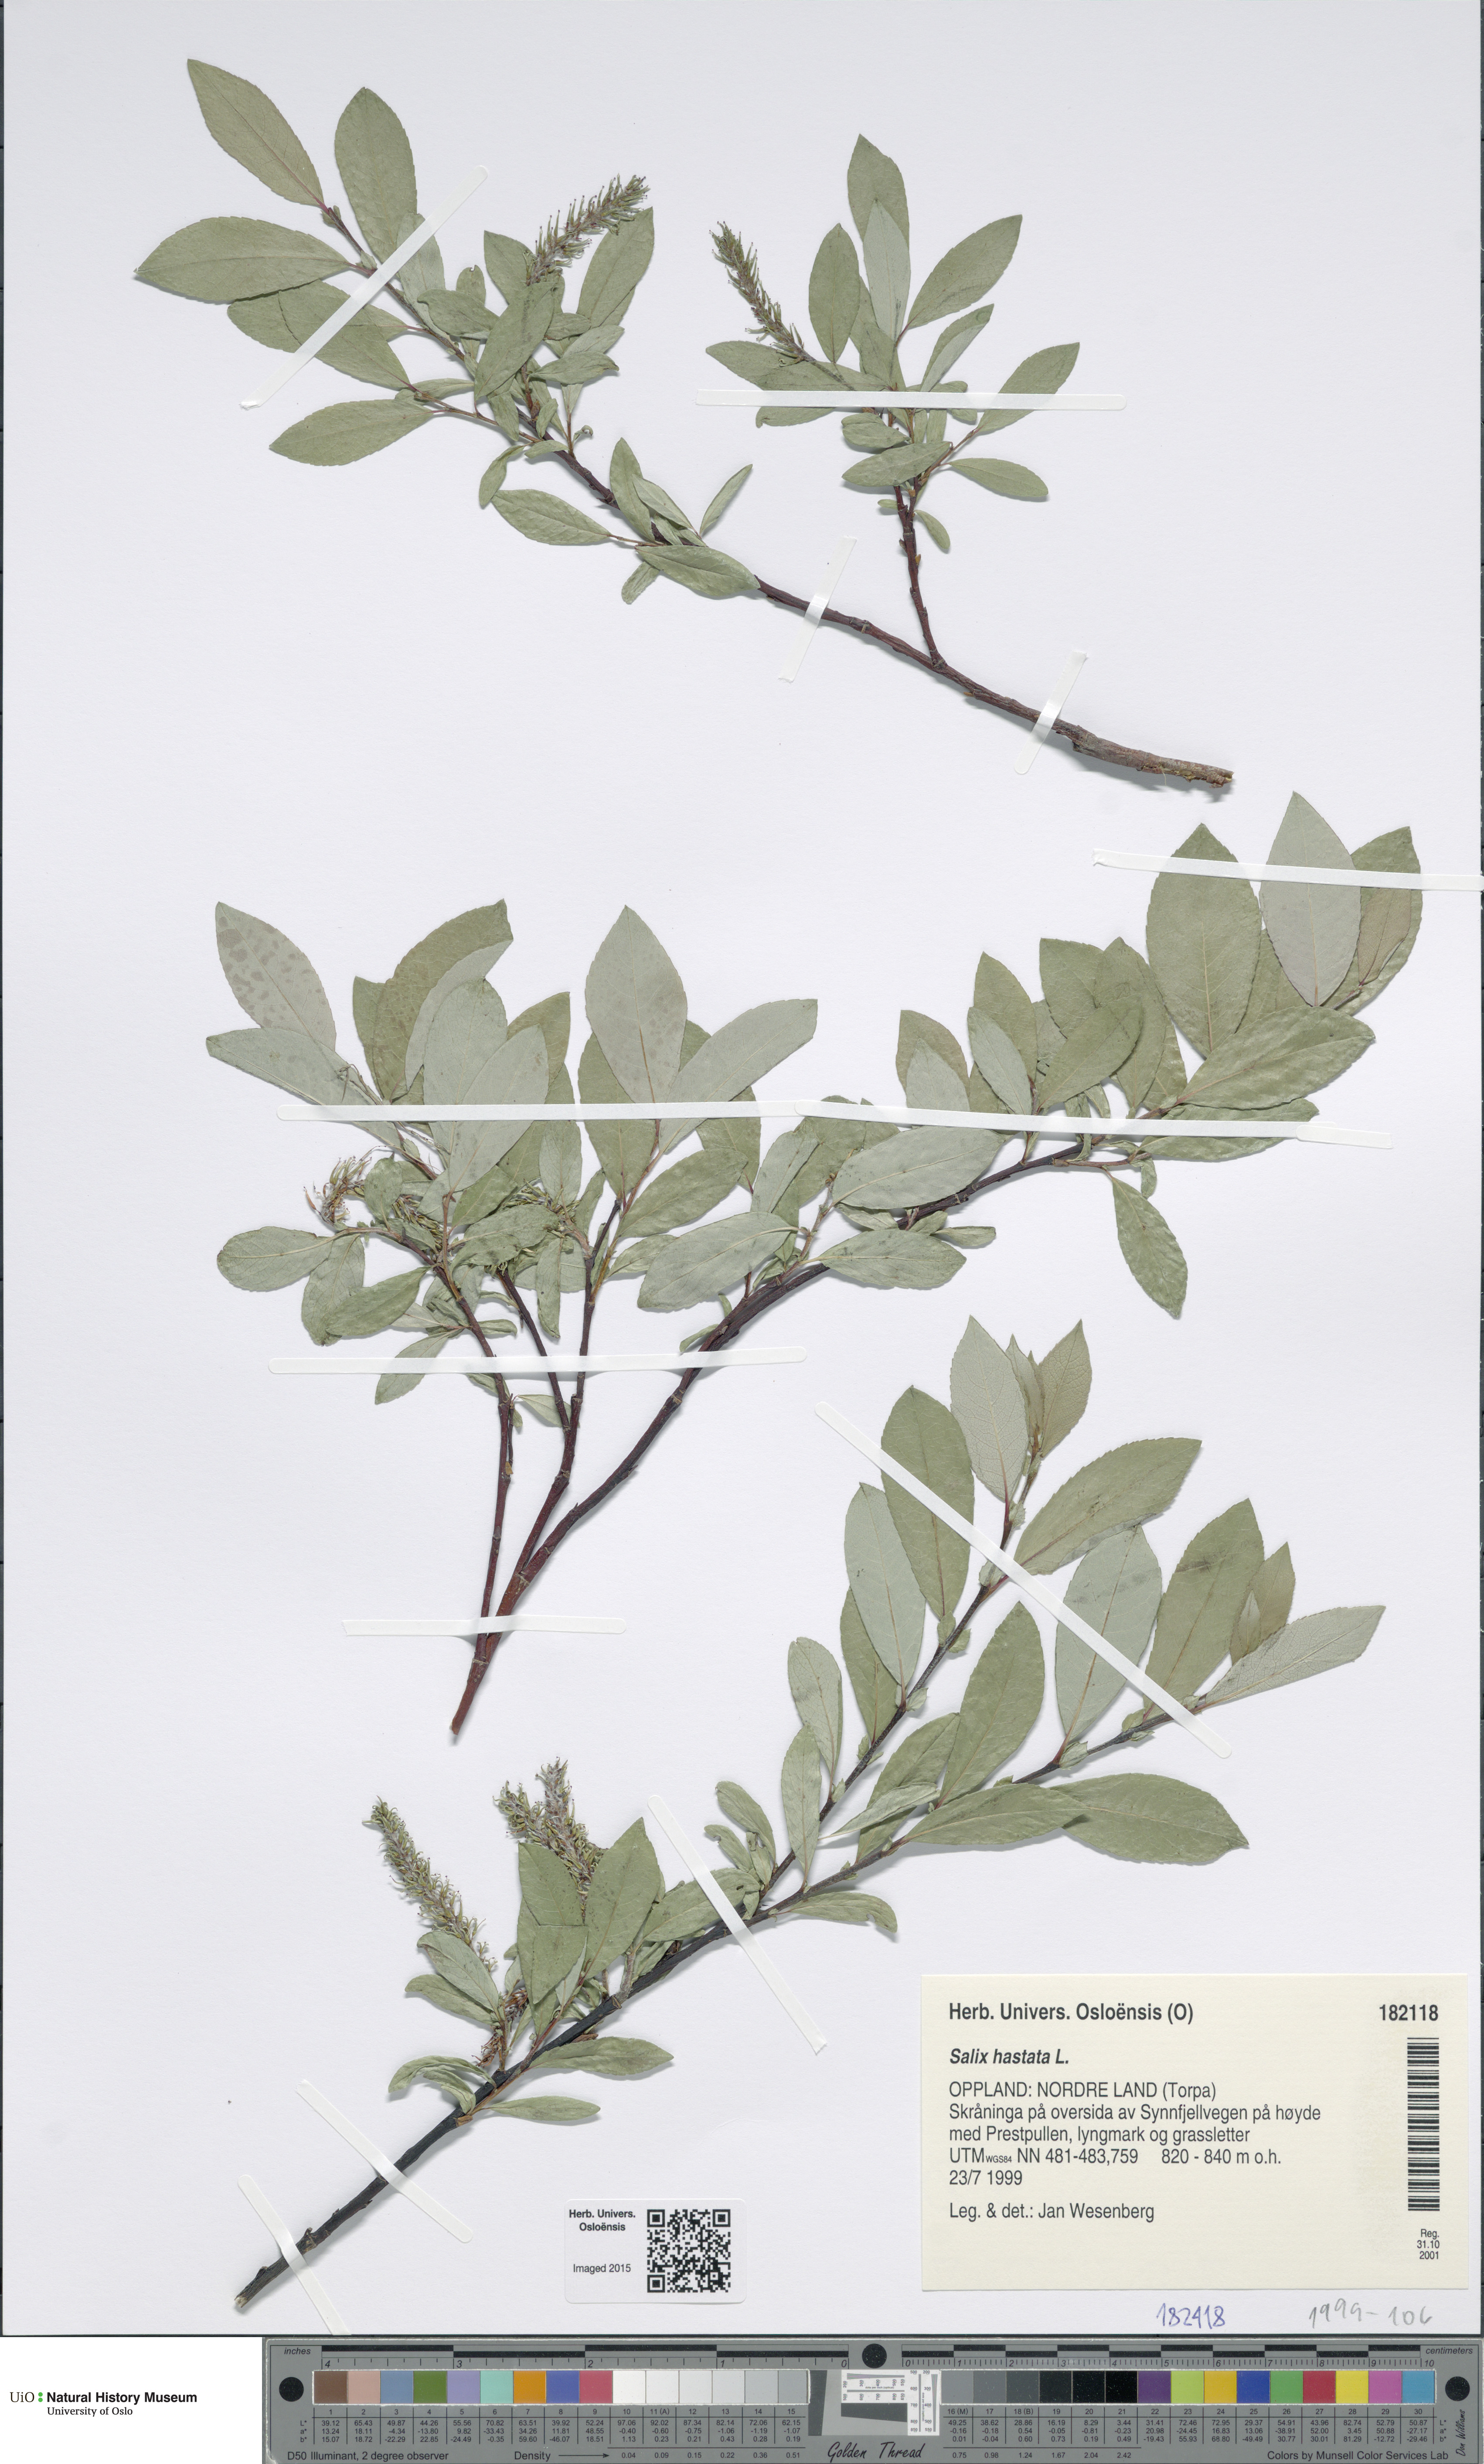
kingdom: Plantae
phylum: Tracheophyta
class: Magnoliopsida
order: Malpighiales
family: Salicaceae
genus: Salix
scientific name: Salix hastata
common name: Halberd willow
